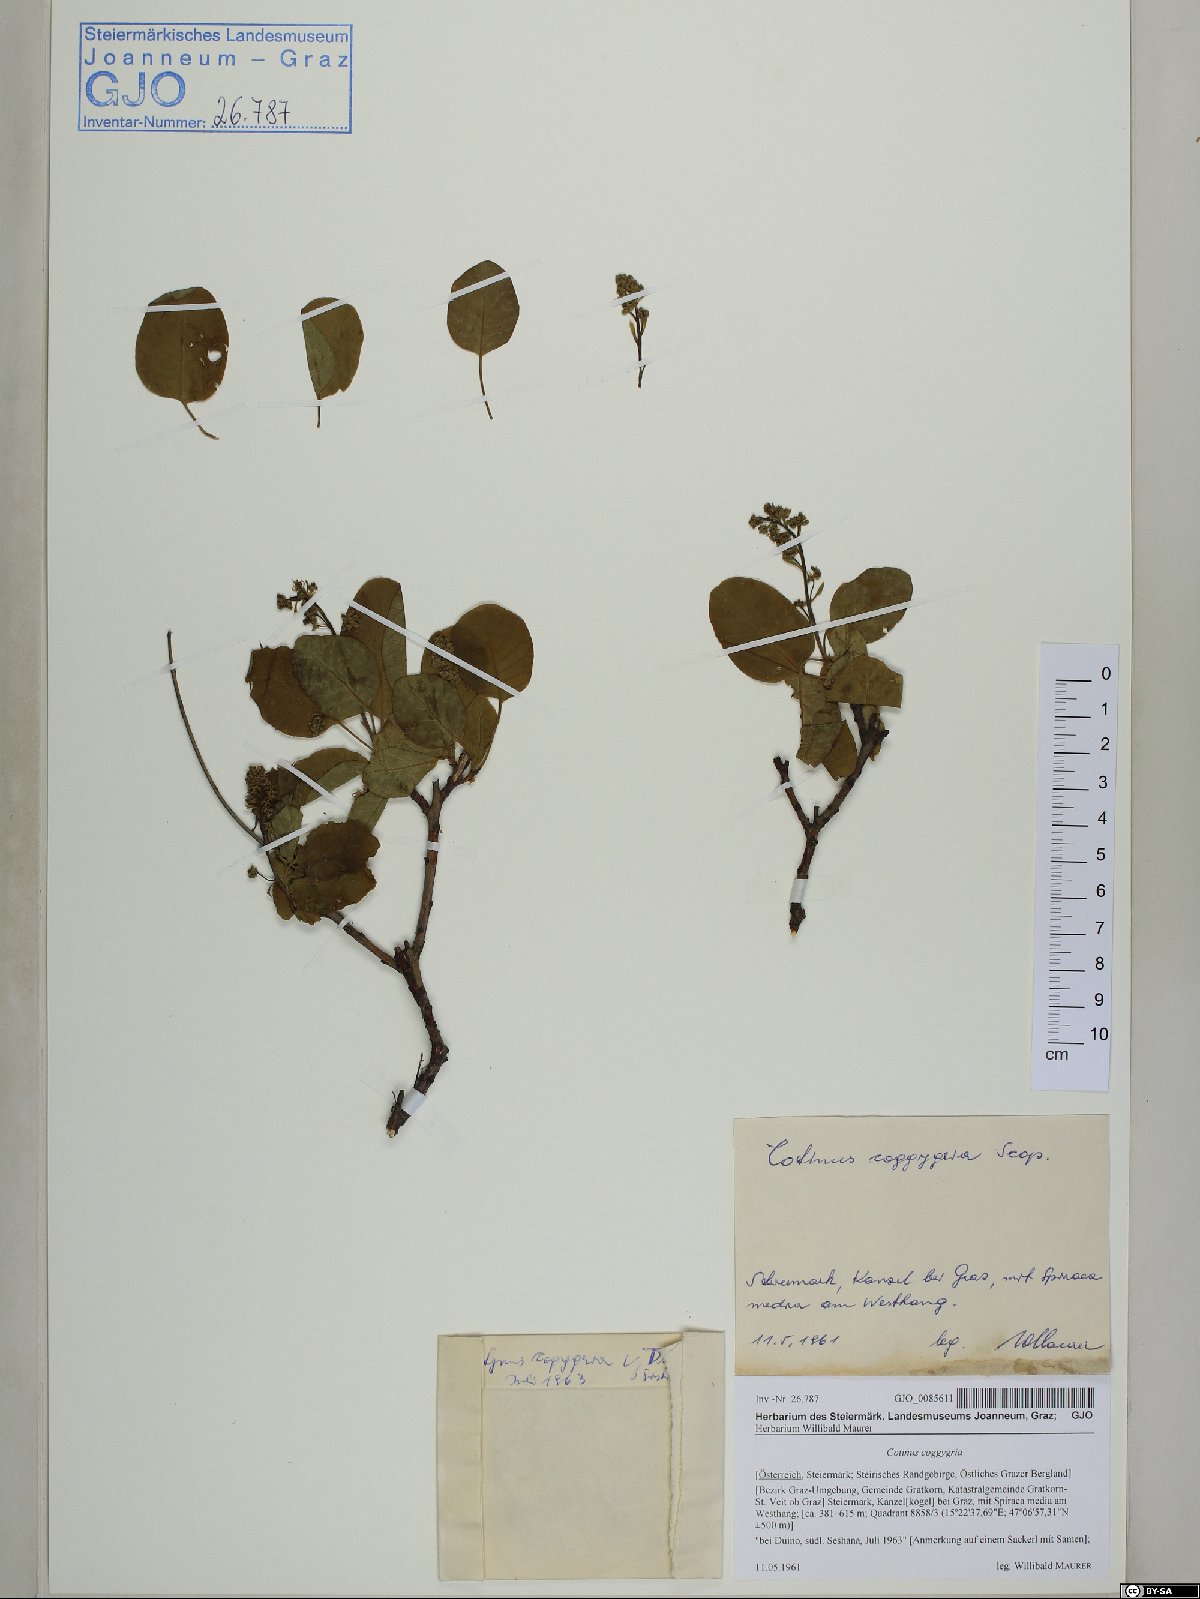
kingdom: Plantae
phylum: Tracheophyta
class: Magnoliopsida
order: Sapindales
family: Anacardiaceae
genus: Cotinus
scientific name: Cotinus coggygria
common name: Smoke-tree
